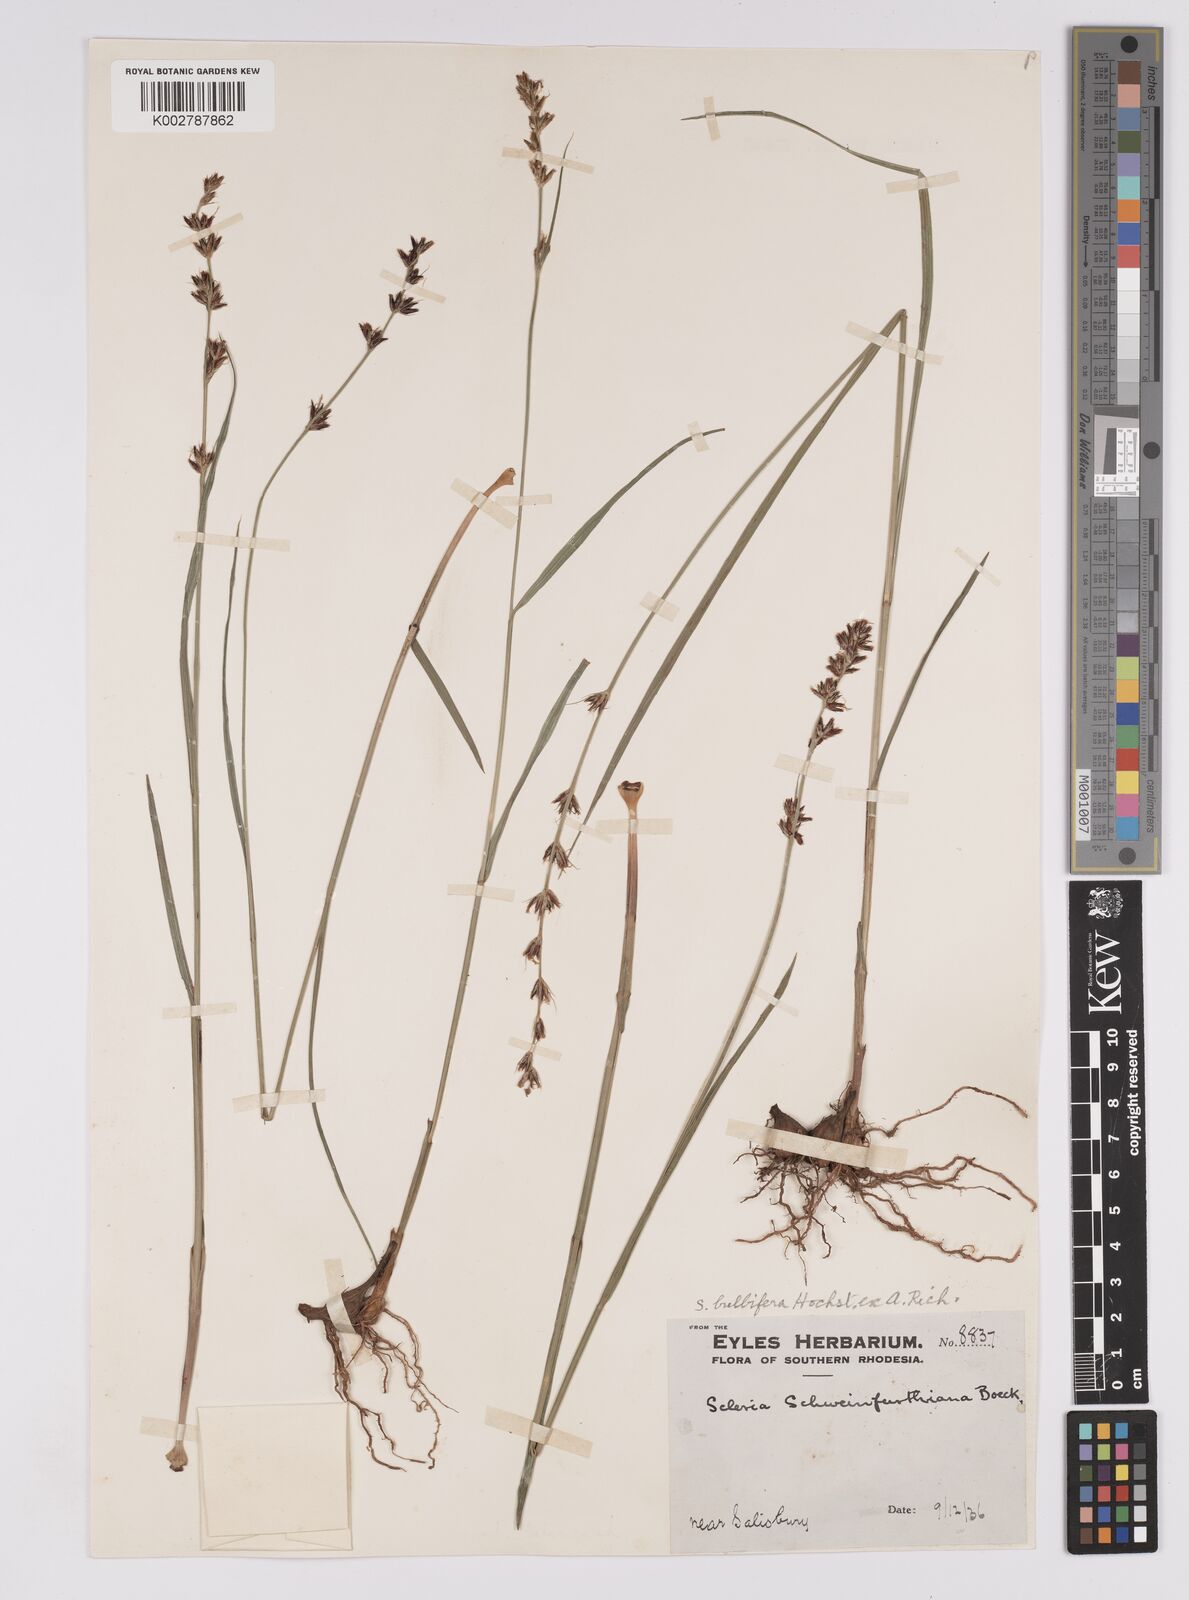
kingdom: Plantae
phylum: Tracheophyta
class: Liliopsida
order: Poales
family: Cyperaceae
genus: Scleria
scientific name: Scleria bulbifera
